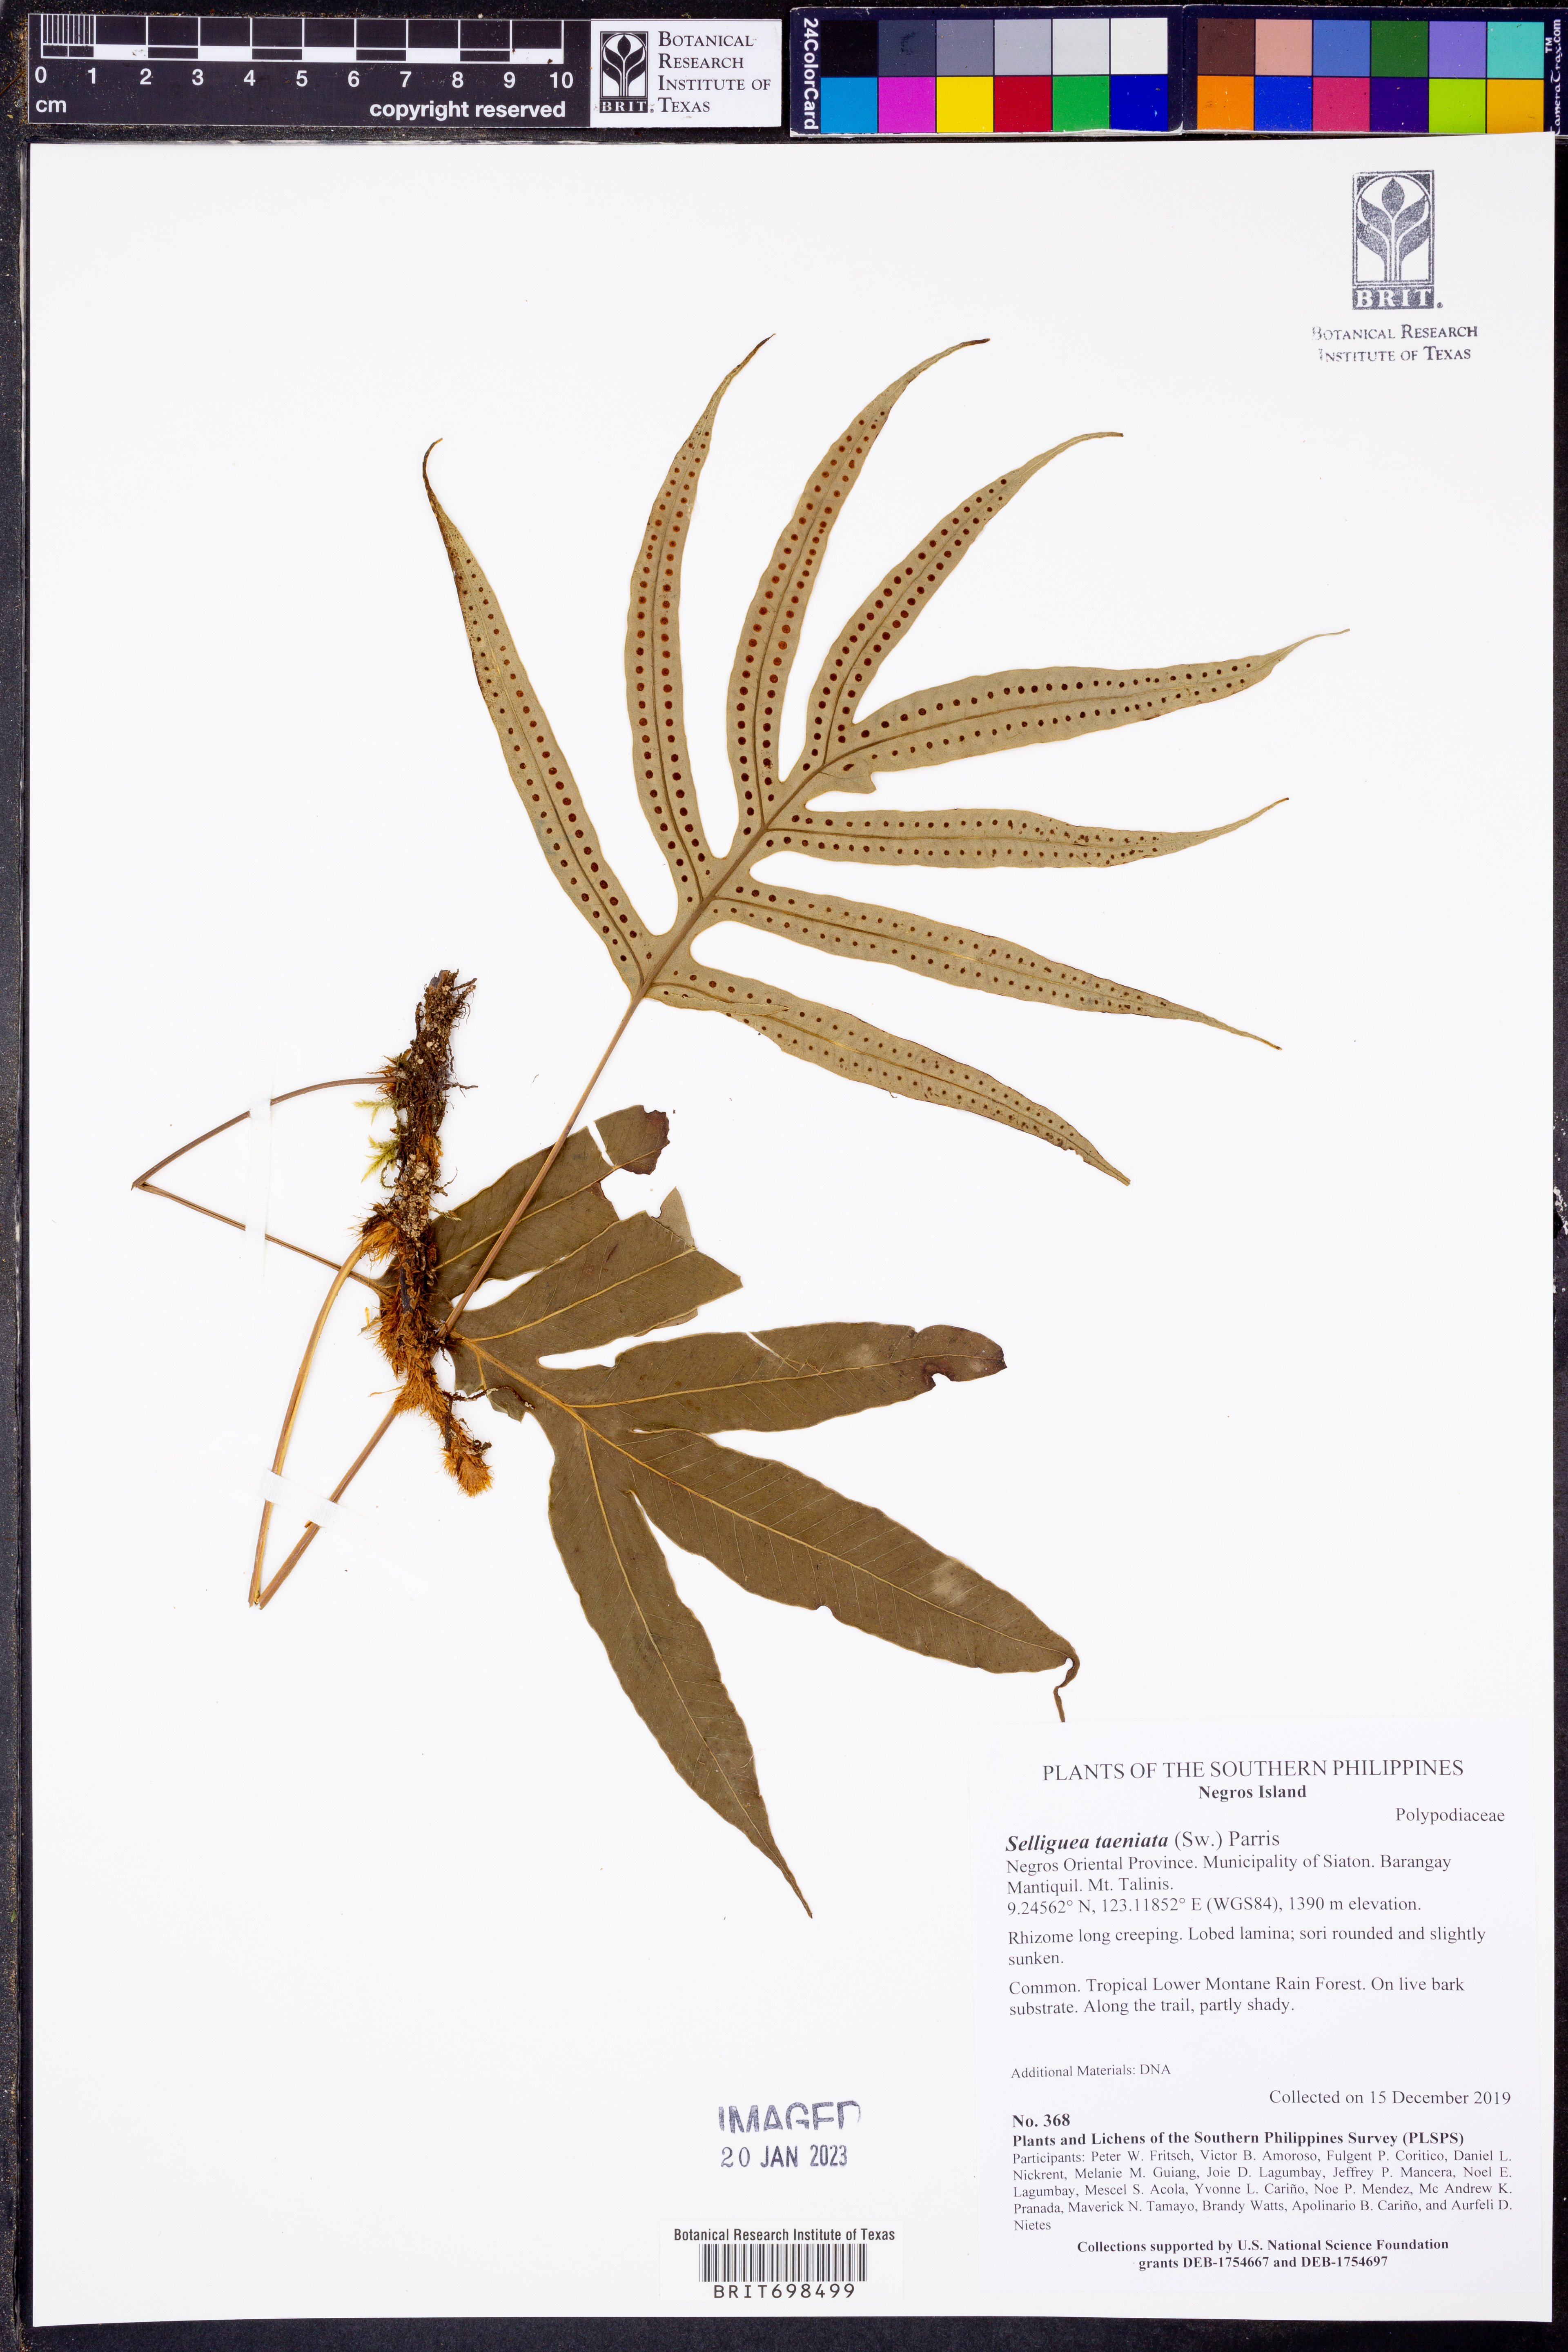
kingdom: Plantae
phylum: Tracheophyta
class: Polypodiopsida
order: Polypodiales
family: Polypodiaceae
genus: Selliguea
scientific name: Selliguea taeniata
